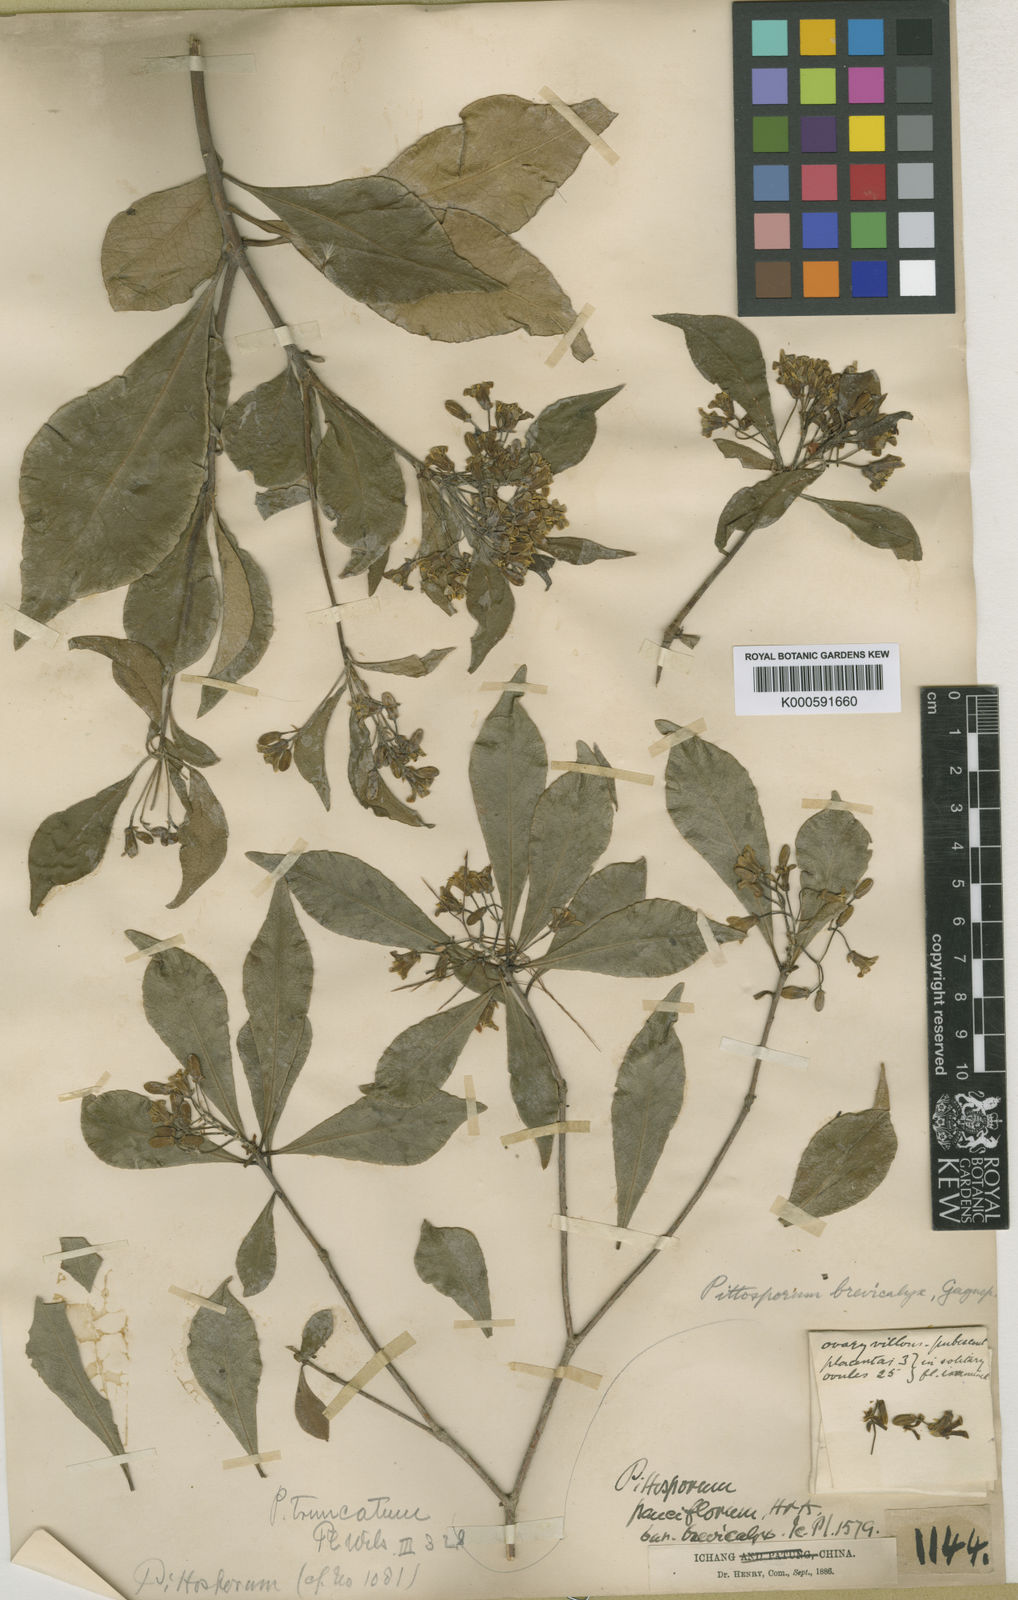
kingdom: Plantae
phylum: Tracheophyta
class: Magnoliopsida
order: Apiales
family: Pittosporaceae
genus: Pittosporum
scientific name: Pittosporum brevicalyx
